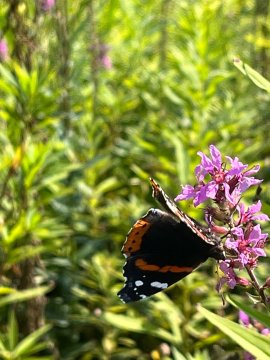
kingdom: Animalia
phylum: Arthropoda
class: Insecta
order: Lepidoptera
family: Nymphalidae
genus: Vanessa
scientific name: Vanessa atalanta
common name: Red Admiral
